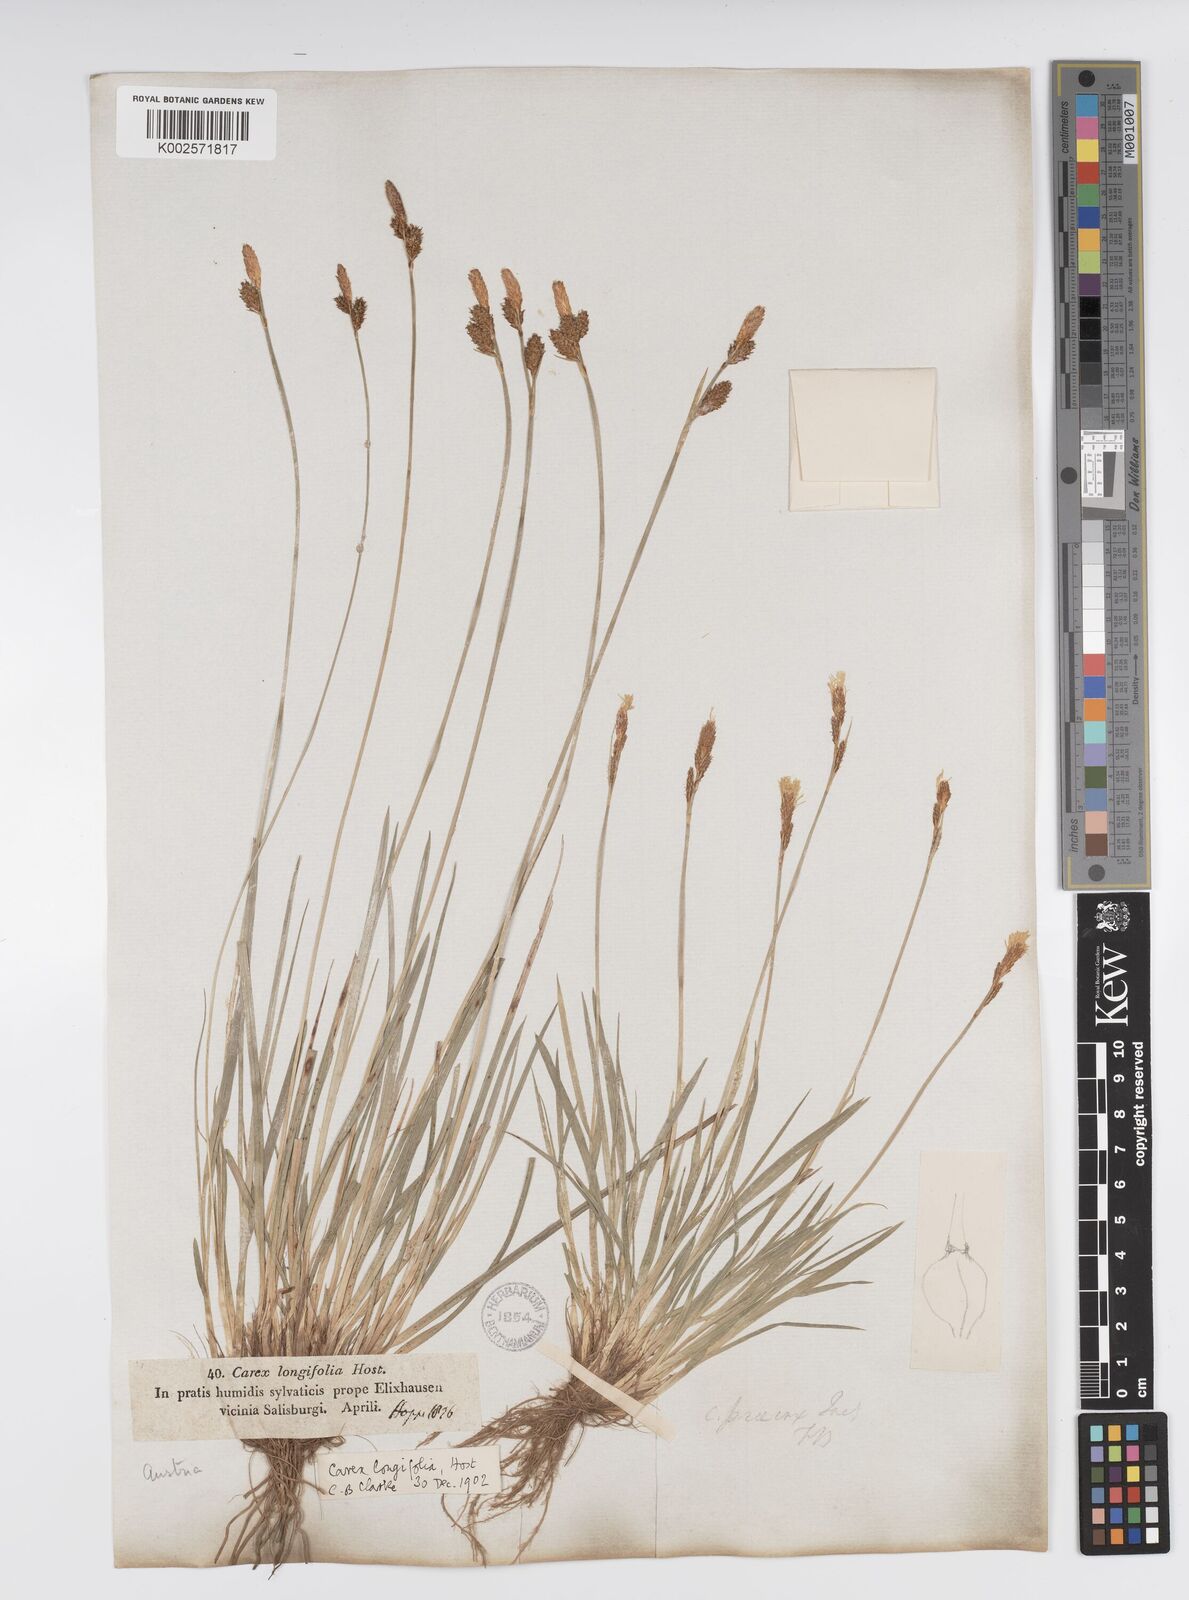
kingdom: Plantae
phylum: Tracheophyta
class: Liliopsida
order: Poales
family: Cyperaceae
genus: Carex
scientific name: Carex umbrosa
